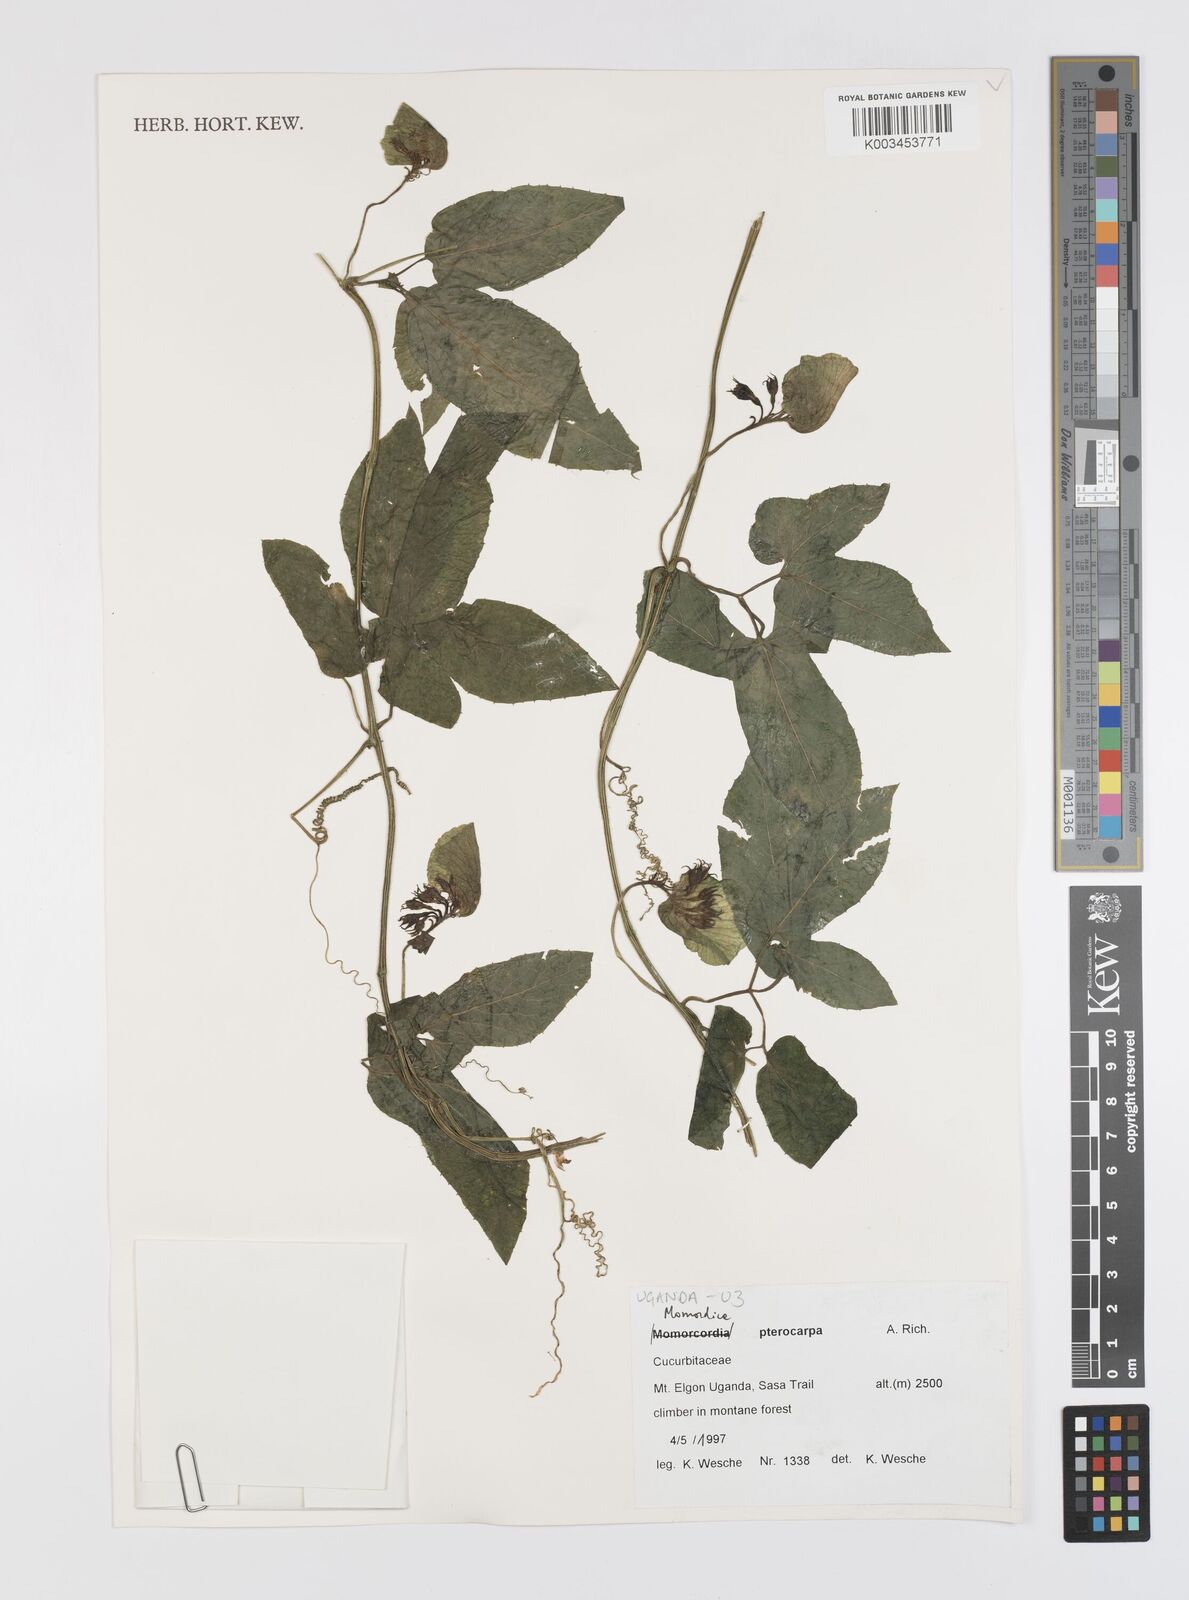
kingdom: Plantae
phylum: Tracheophyta
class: Magnoliopsida
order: Cucurbitales
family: Cucurbitaceae
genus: Momordica
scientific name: Momordica pterocarpa
